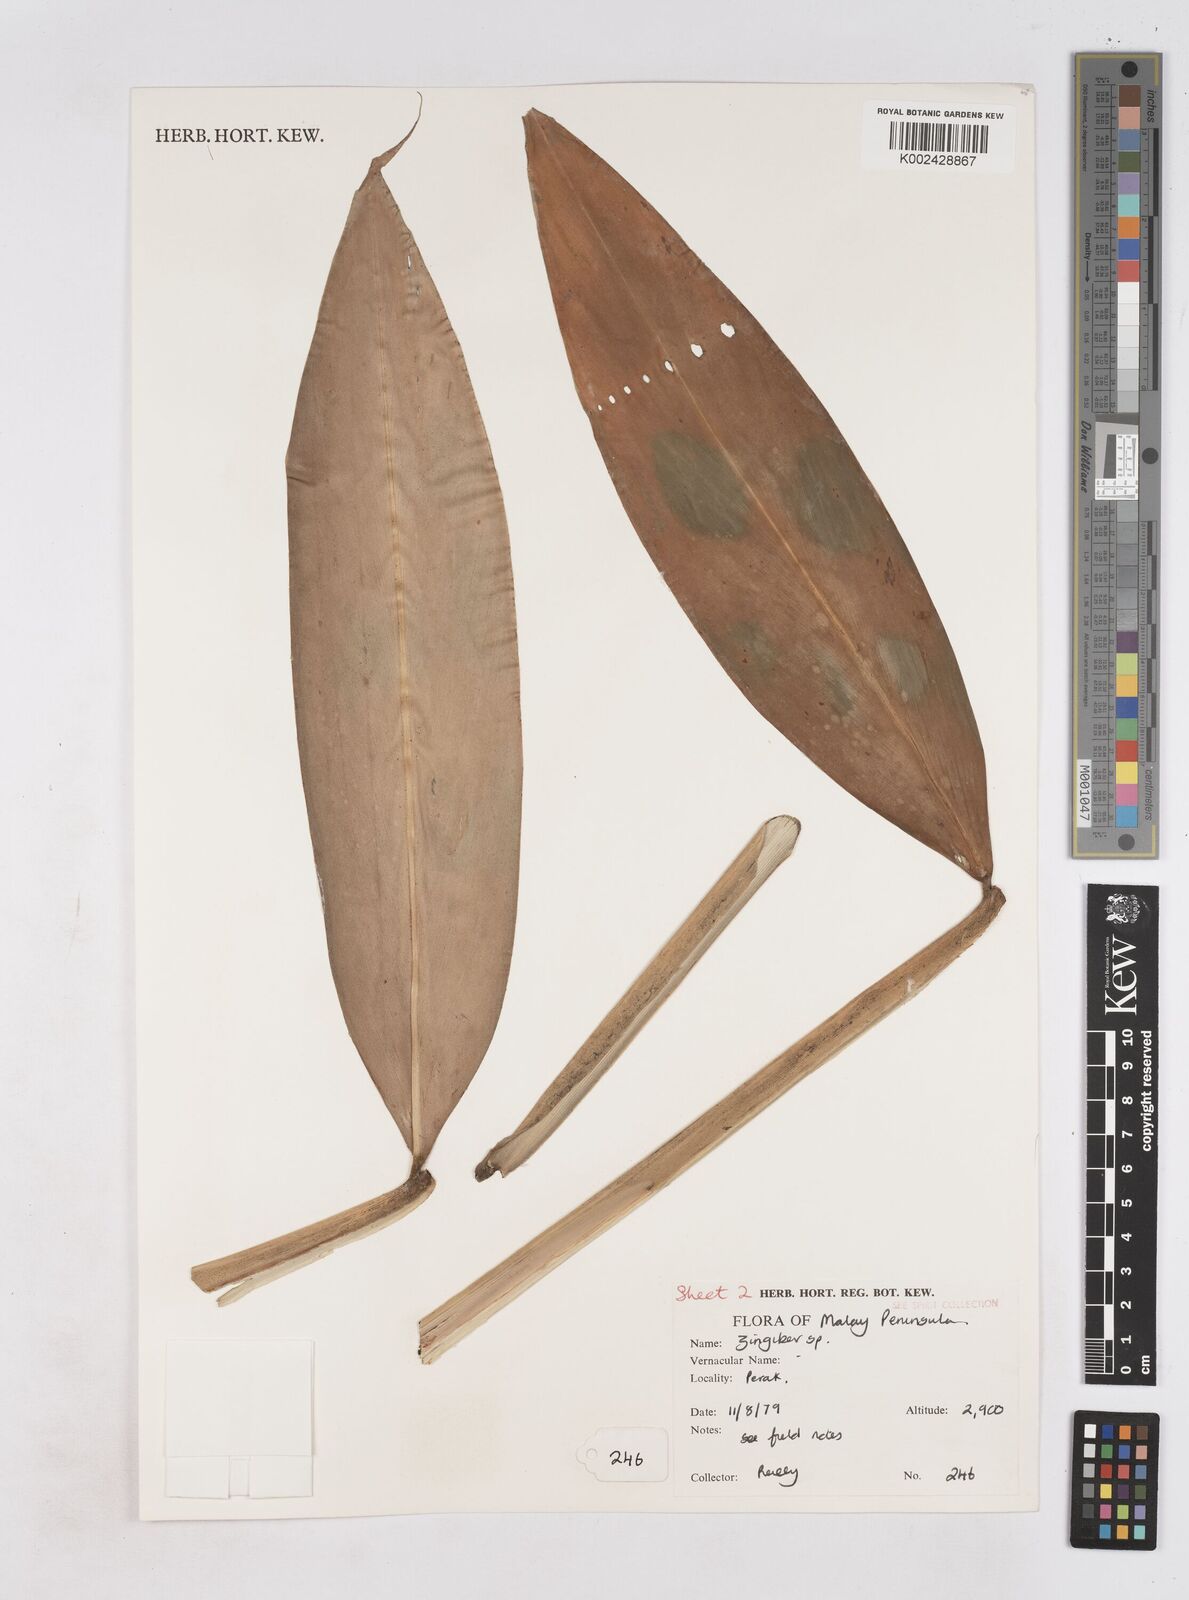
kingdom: Plantae
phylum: Tracheophyta
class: Liliopsida
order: Zingiberales
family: Zingiberaceae
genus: Zingiber
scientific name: Zingiber
